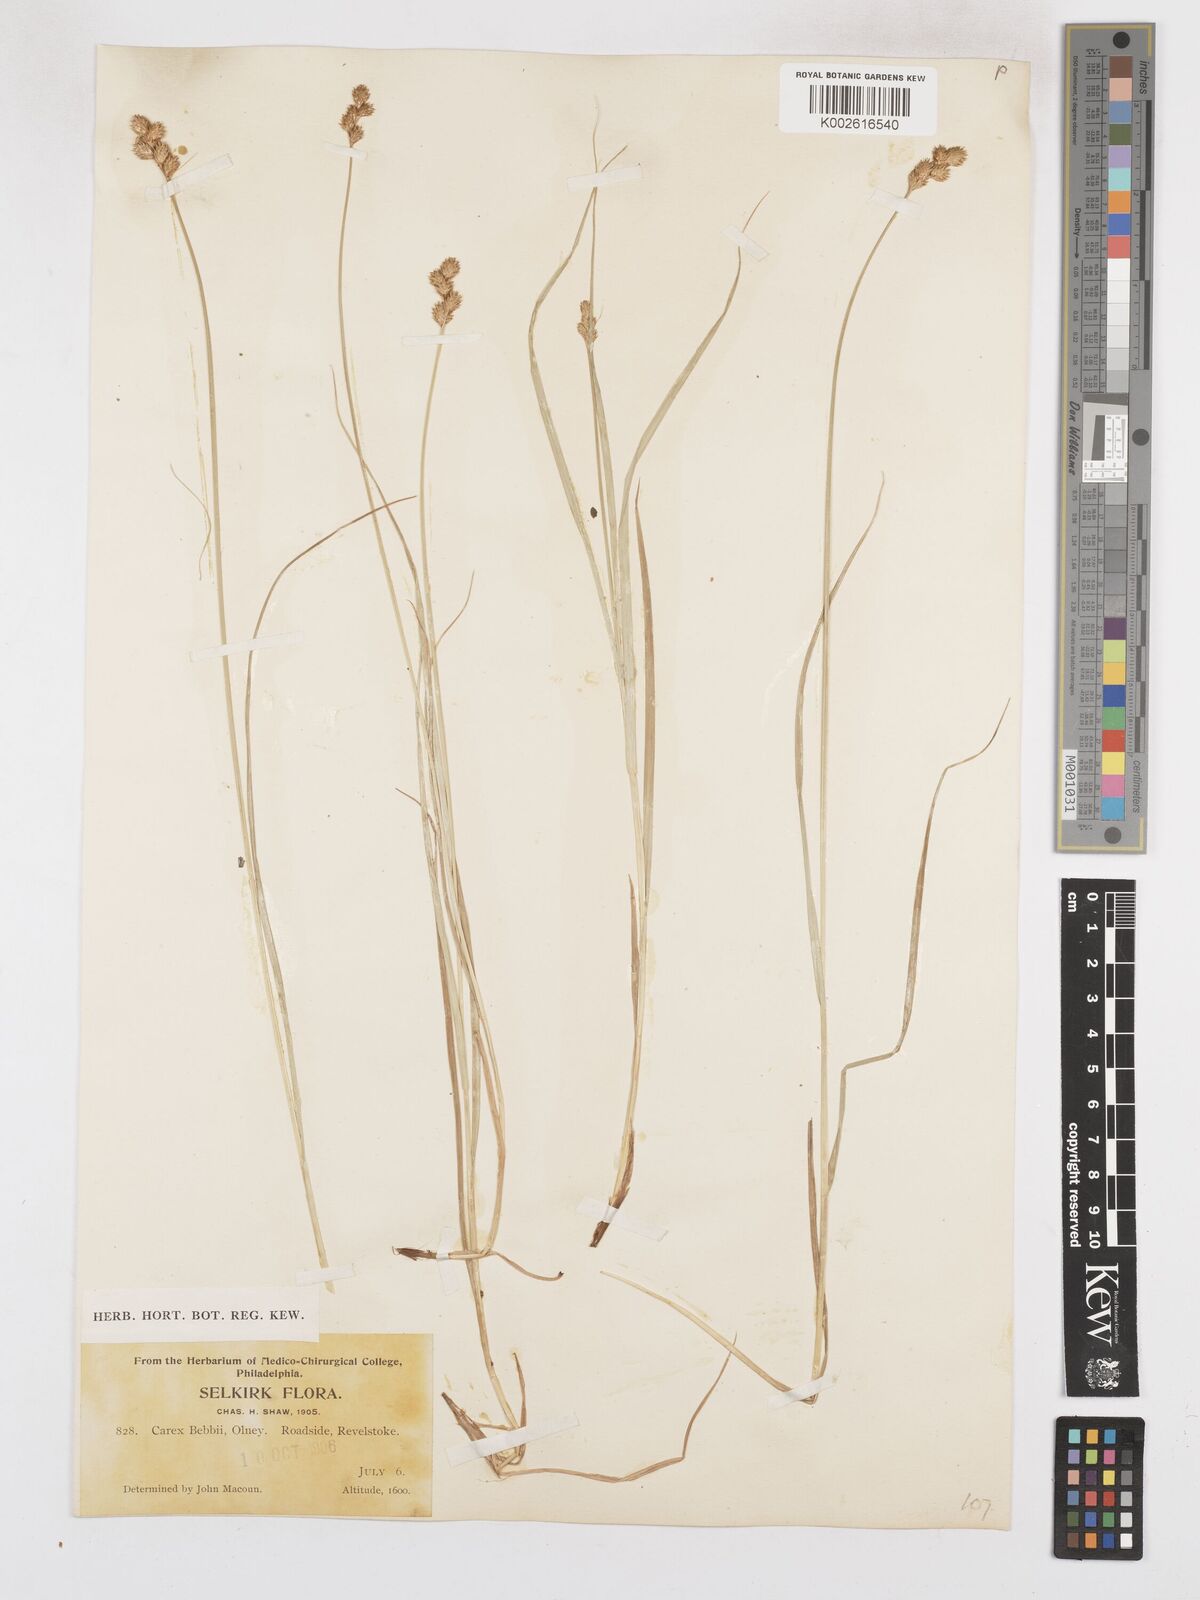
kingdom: Plantae
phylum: Tracheophyta
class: Liliopsida
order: Poales
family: Cyperaceae
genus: Carex
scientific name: Carex cristatella
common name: Crested oval sedge
